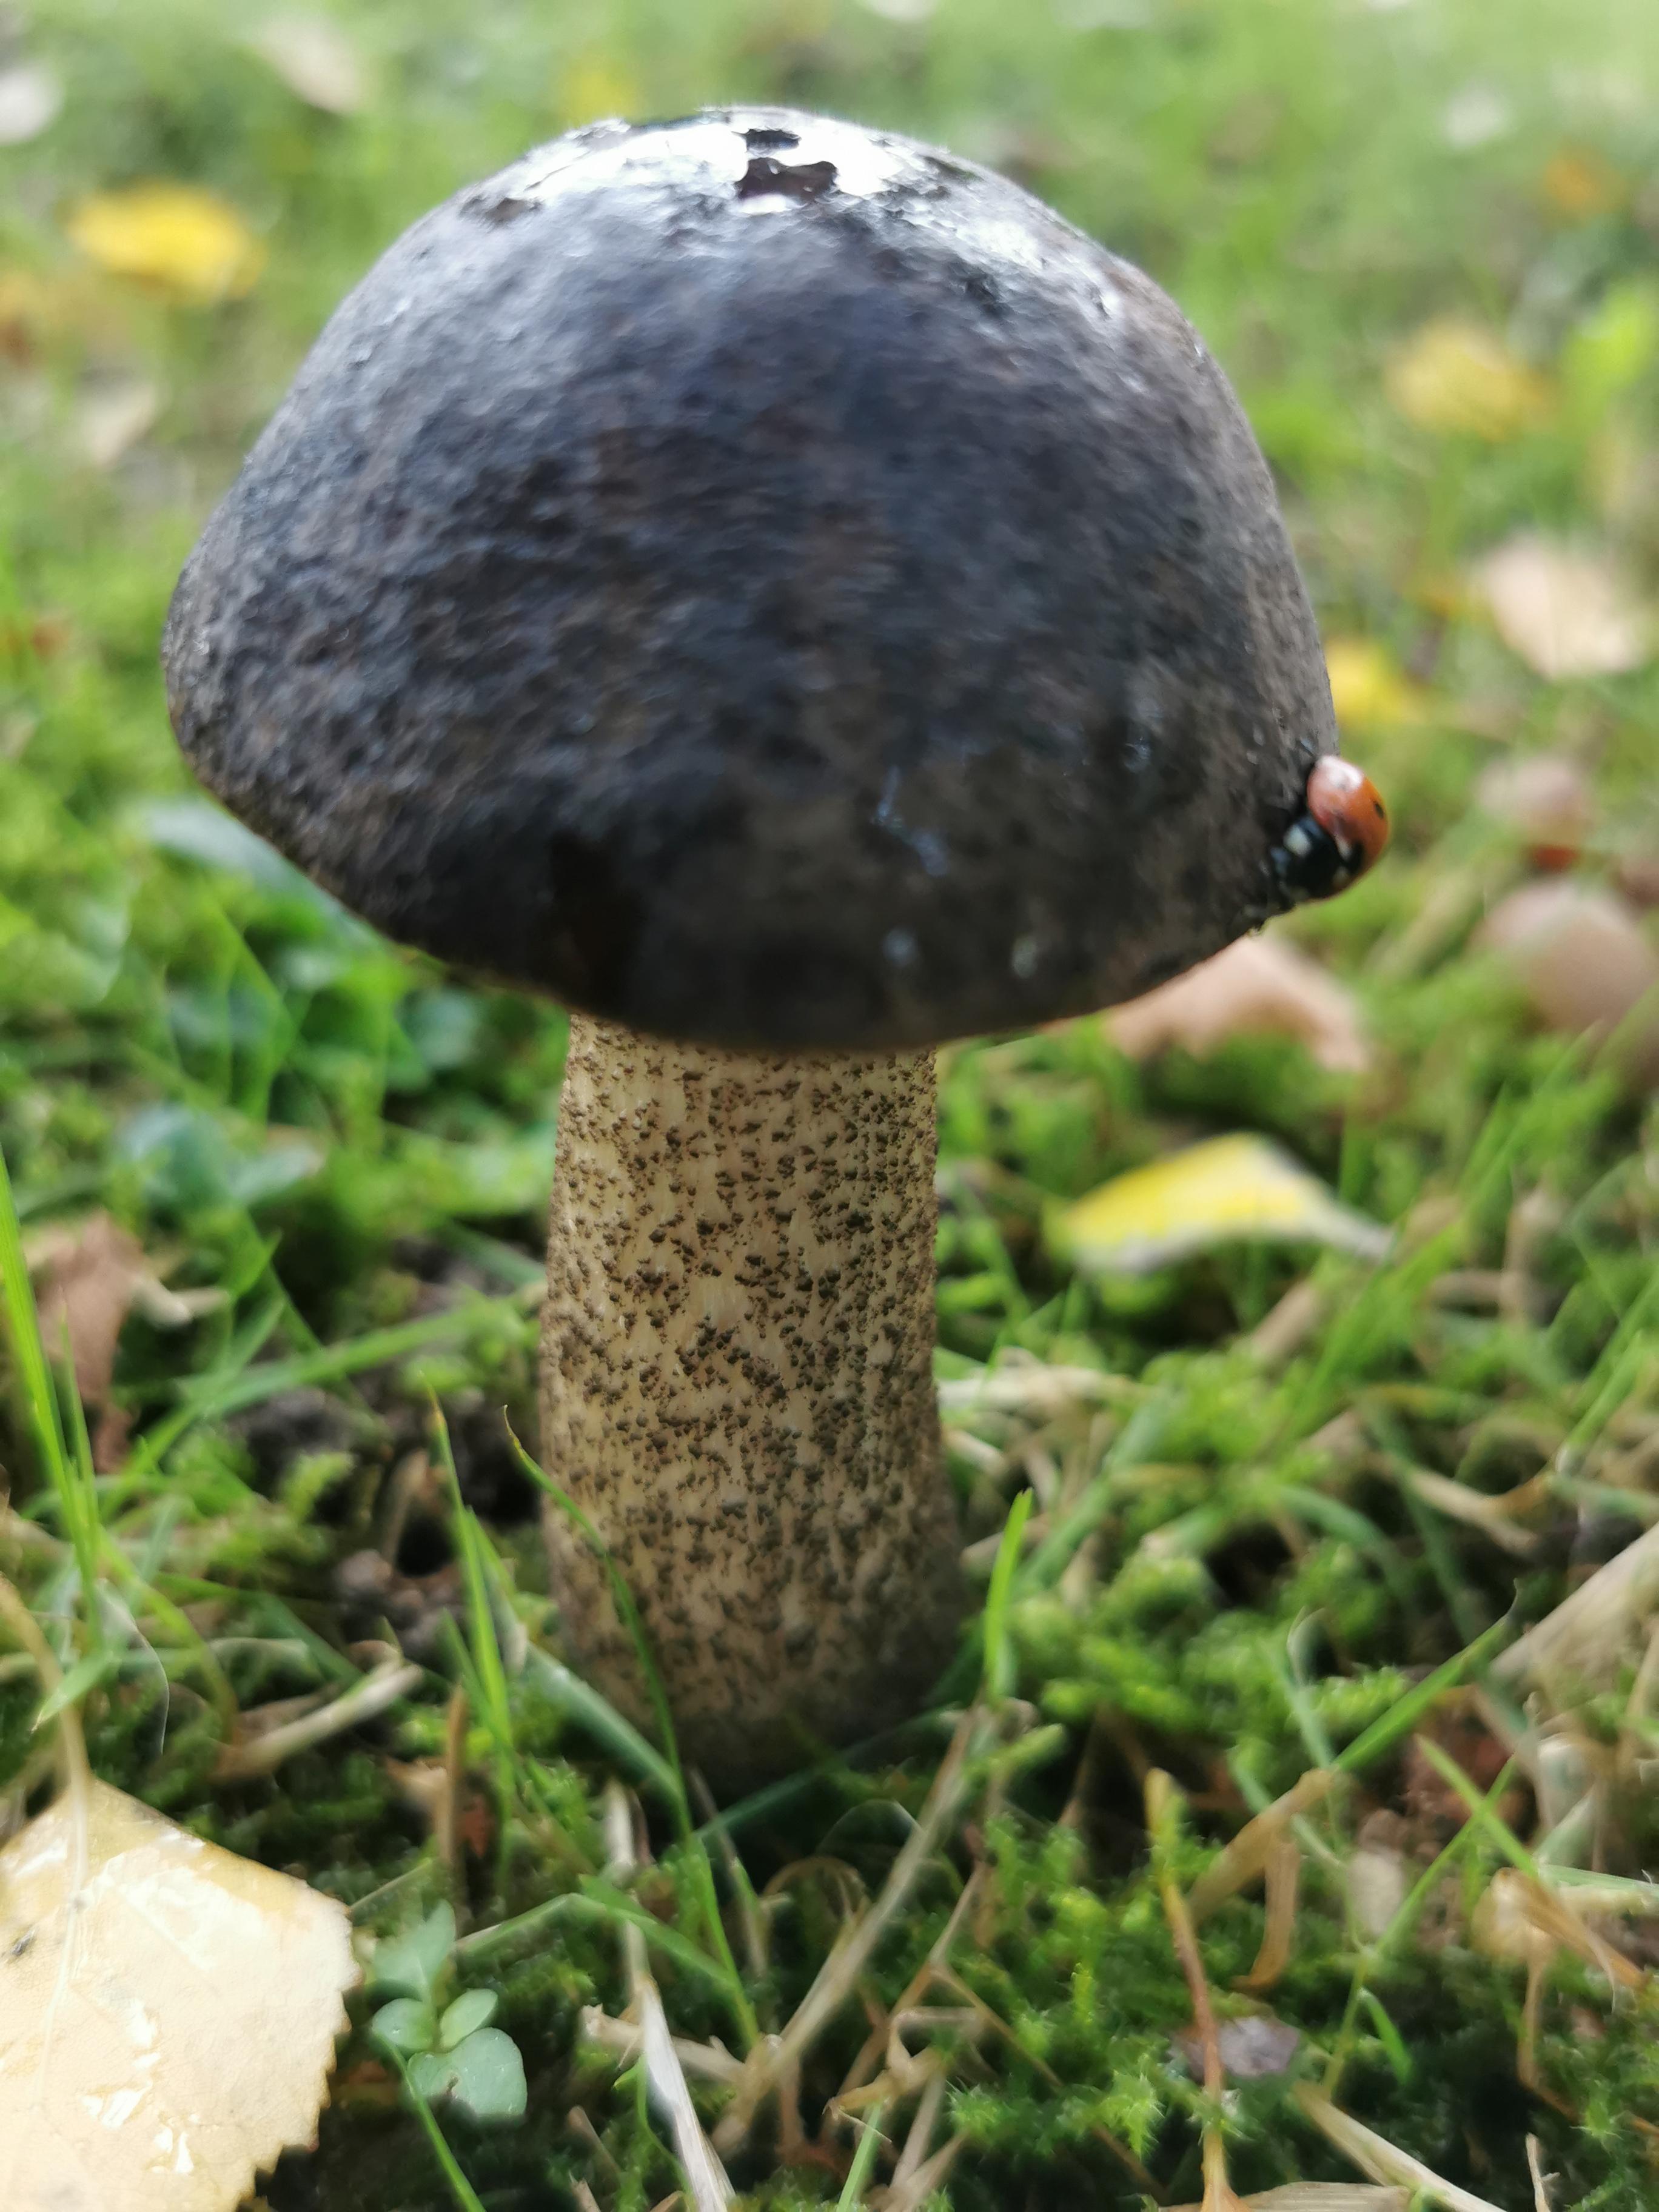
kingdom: Fungi
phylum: Basidiomycota
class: Agaricomycetes
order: Boletales
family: Boletaceae
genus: Leccinum
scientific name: Leccinum melaneum
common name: mørk skælrørhat
